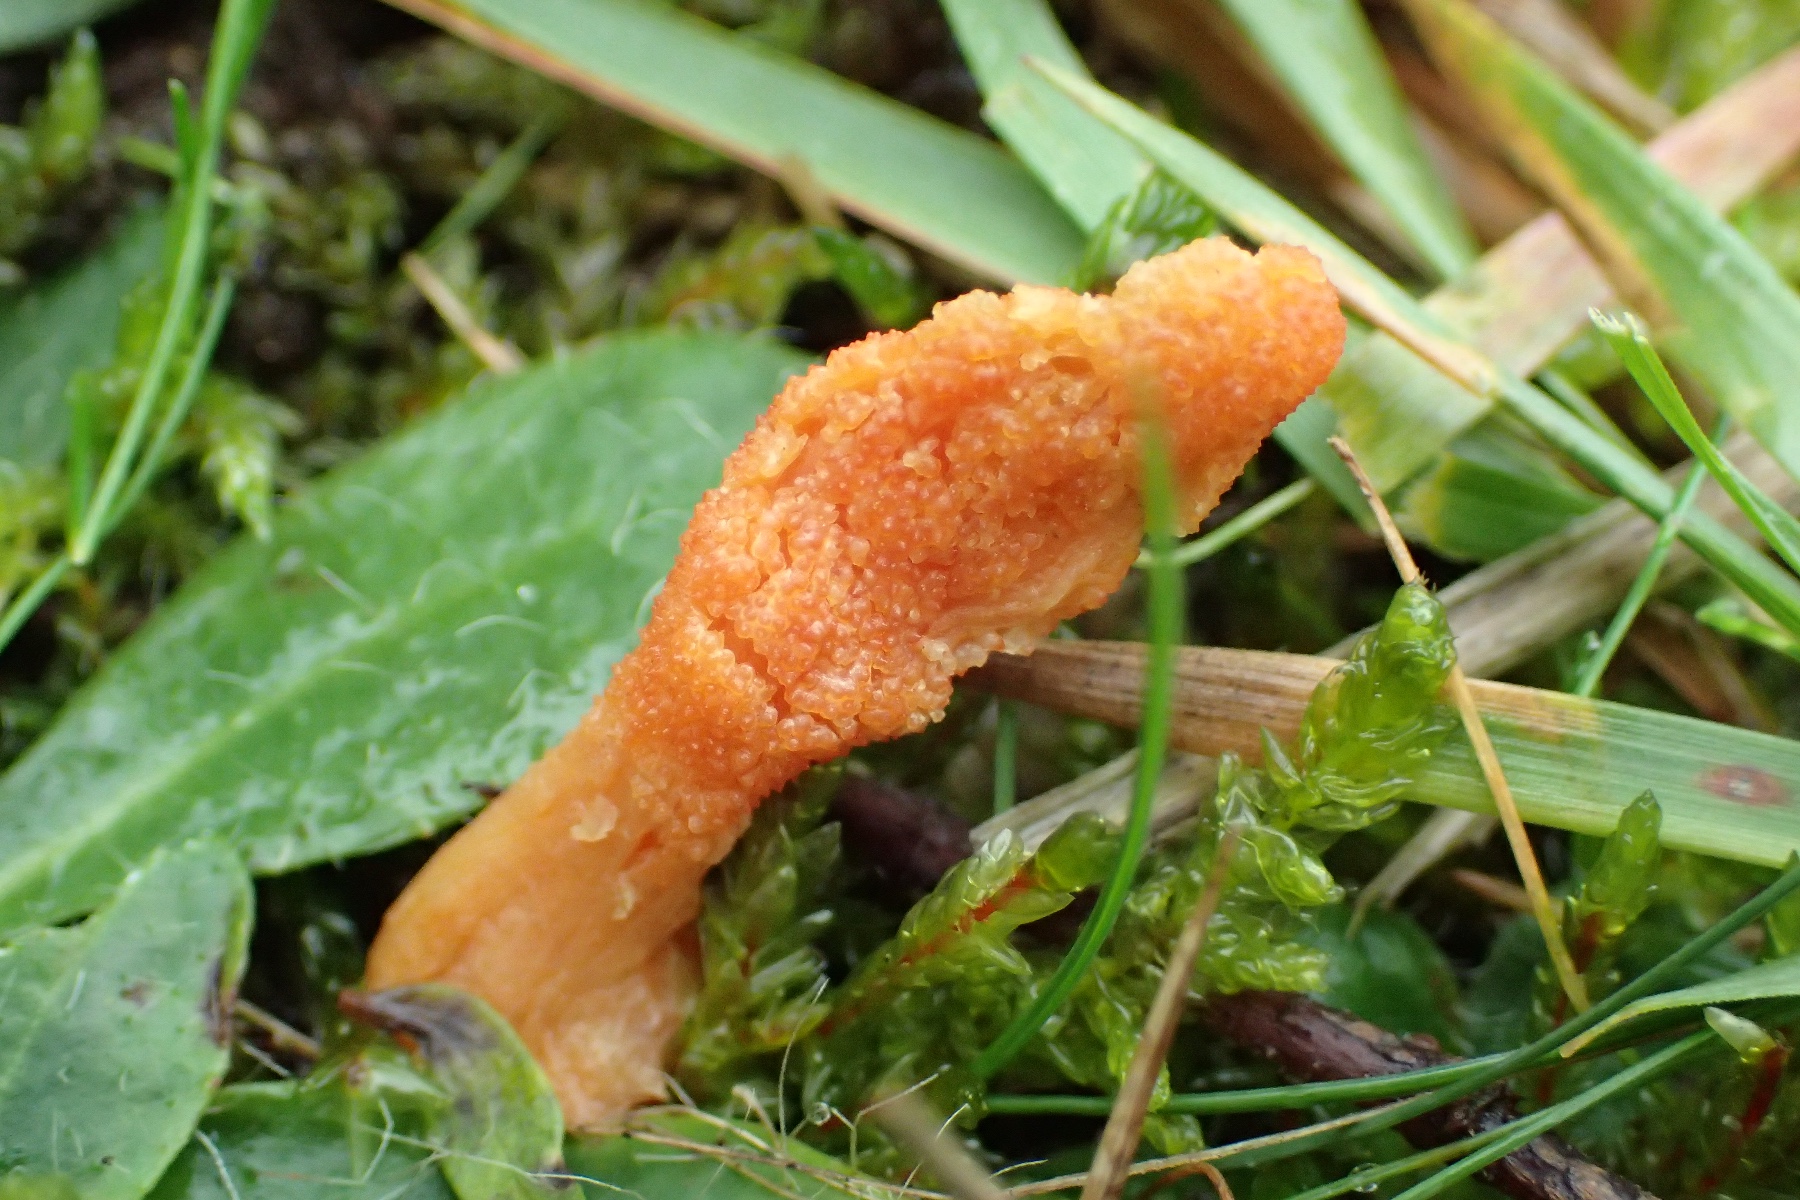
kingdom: Fungi
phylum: Ascomycota
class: Sordariomycetes
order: Hypocreales
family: Cordycipitaceae
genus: Cordyceps
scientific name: Cordyceps militaris
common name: puppe-snyltekølle
